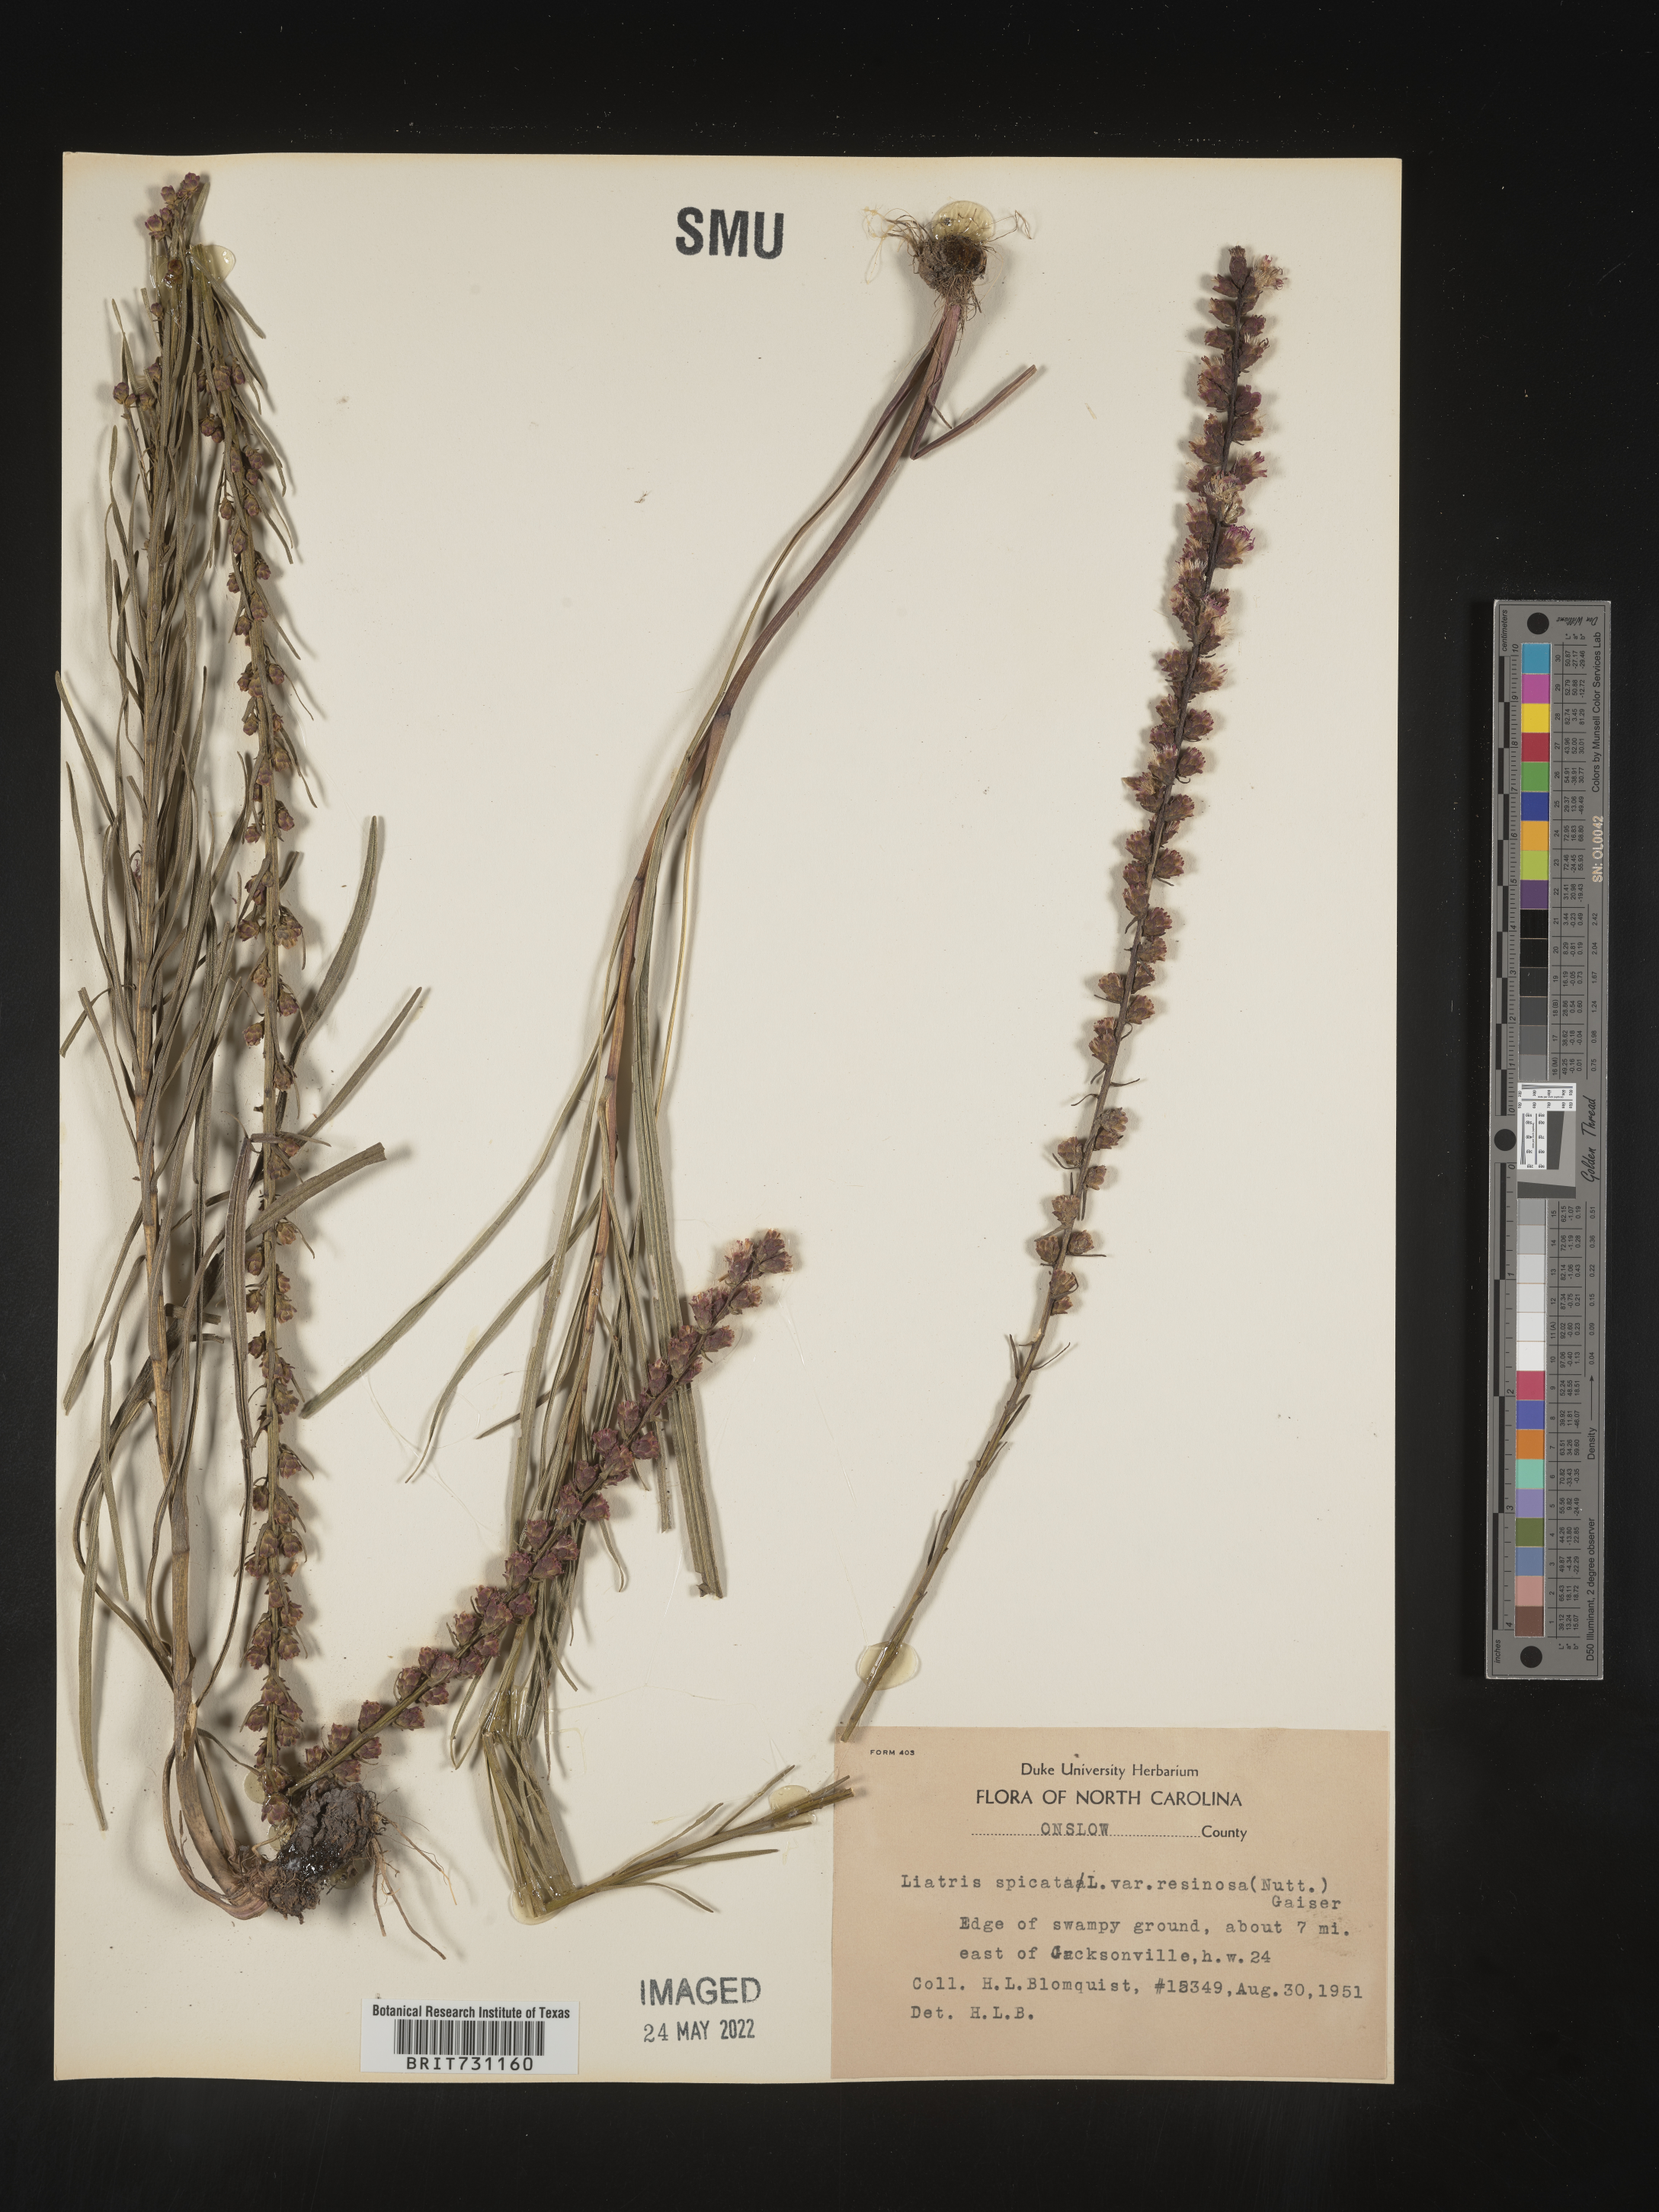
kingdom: Plantae
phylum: Tracheophyta
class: Magnoliopsida
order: Asterales
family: Asteraceae
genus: Liatris
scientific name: Liatris spicata
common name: Florist gayfeather
